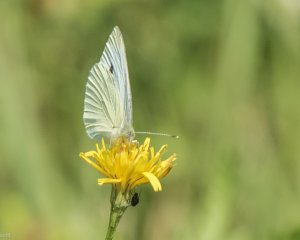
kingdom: Animalia
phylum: Arthropoda
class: Insecta
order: Lepidoptera
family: Pieridae
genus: Pieris
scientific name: Pieris rapae
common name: Cabbage White
